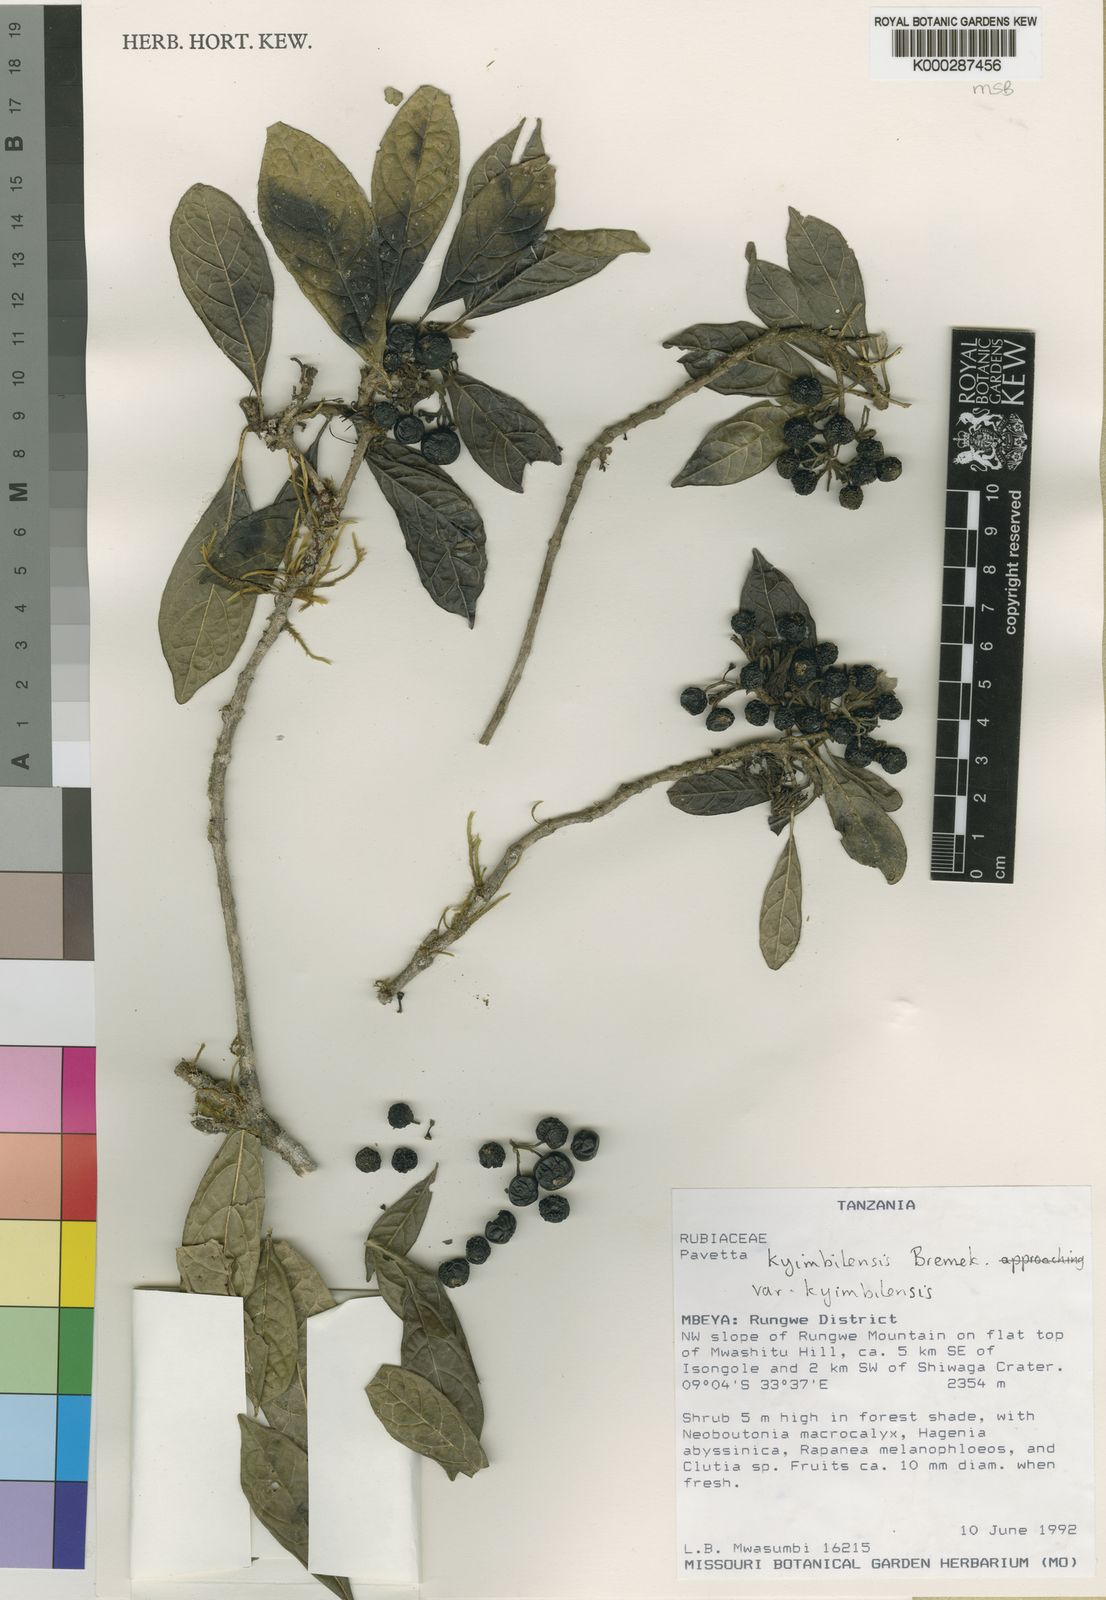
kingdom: Plantae
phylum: Tracheophyta
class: Magnoliopsida
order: Gentianales
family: Rubiaceae
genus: Pavetta
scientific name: Pavetta kyimbilensis
